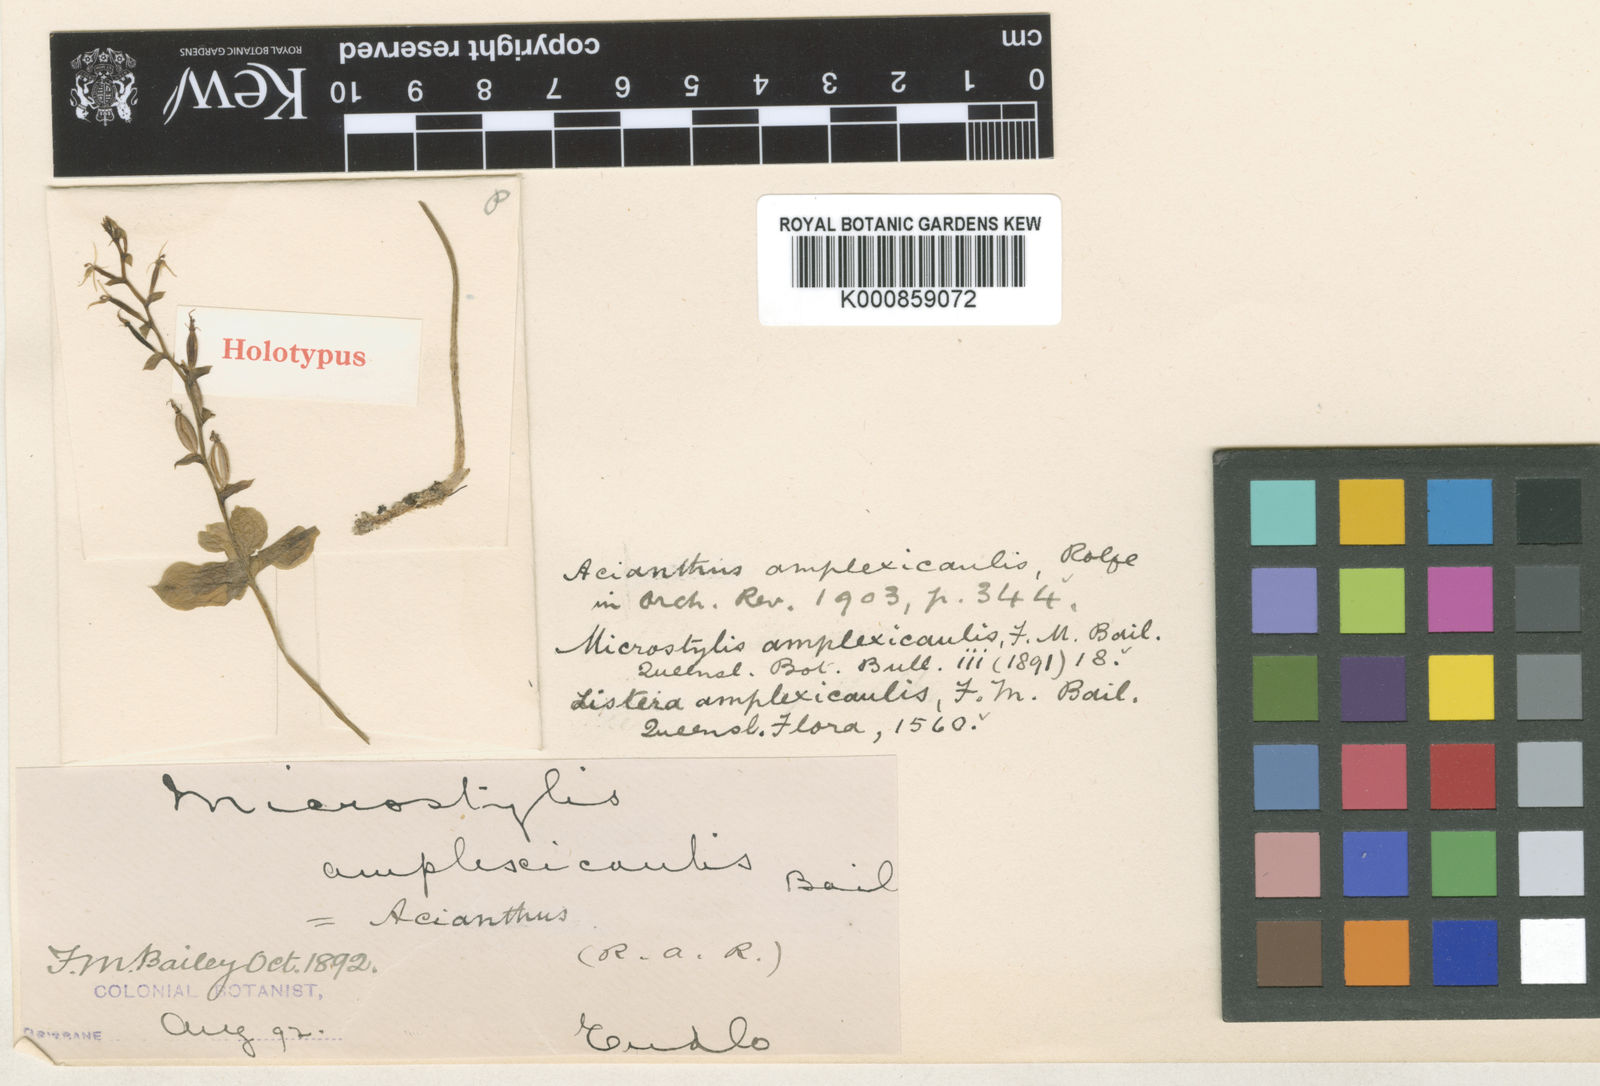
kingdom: Plantae
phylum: Tracheophyta
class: Liliopsida
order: Asparagales
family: Orchidaceae
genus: Acianthus
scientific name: Acianthus amplexicaulis
